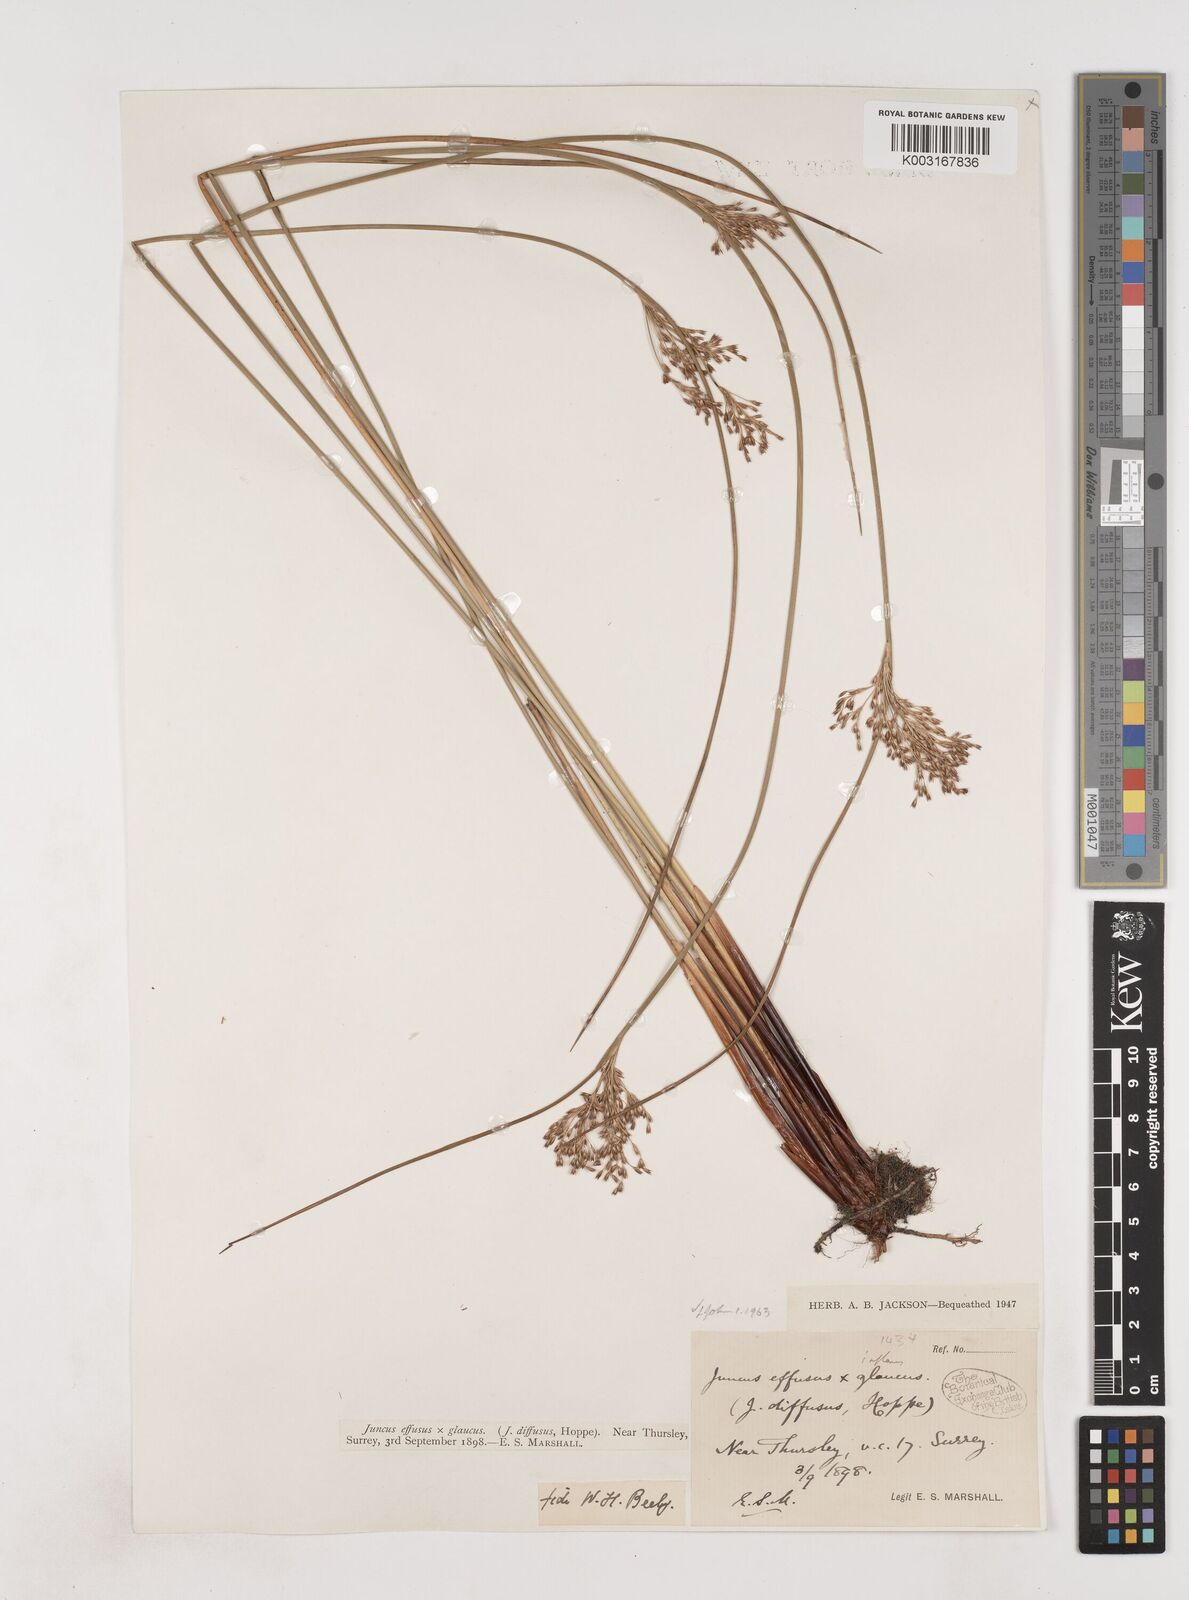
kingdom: Plantae
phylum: Tracheophyta
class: Liliopsida
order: Poales
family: Juncaceae
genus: Juncus
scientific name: Juncus effusus
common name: Soft rush
